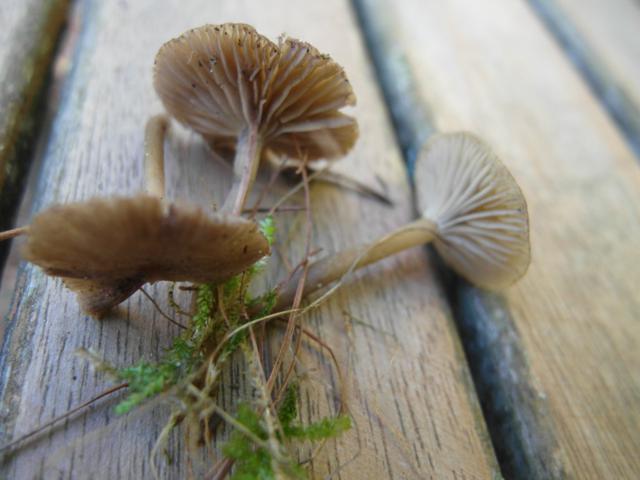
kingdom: Fungi
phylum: Basidiomycota
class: Agaricomycetes
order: Agaricales
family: Tricholomataceae
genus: Omphaliaster
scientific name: Omphaliaster asterosporus
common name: narrehat
